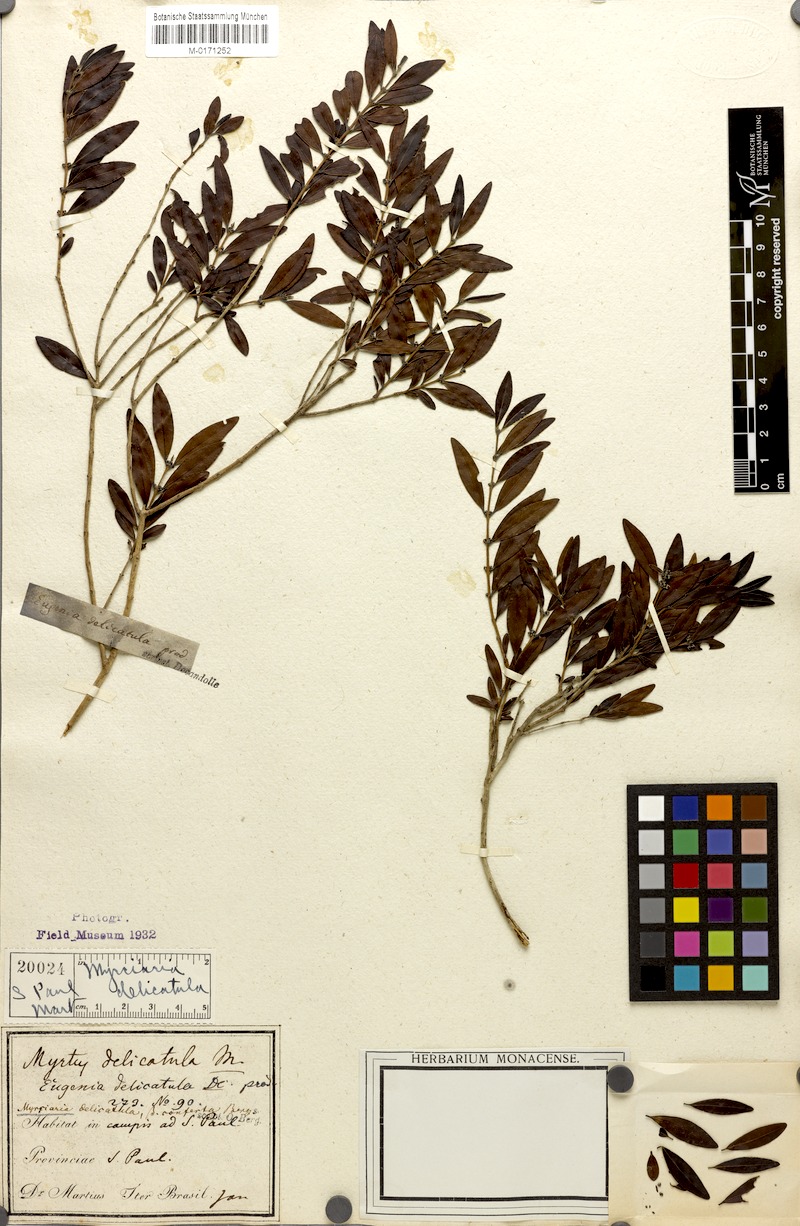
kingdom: Plantae
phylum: Tracheophyta
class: Magnoliopsida
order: Myrtales
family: Myrtaceae
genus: Myrciaria
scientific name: Myrciaria delicatula
